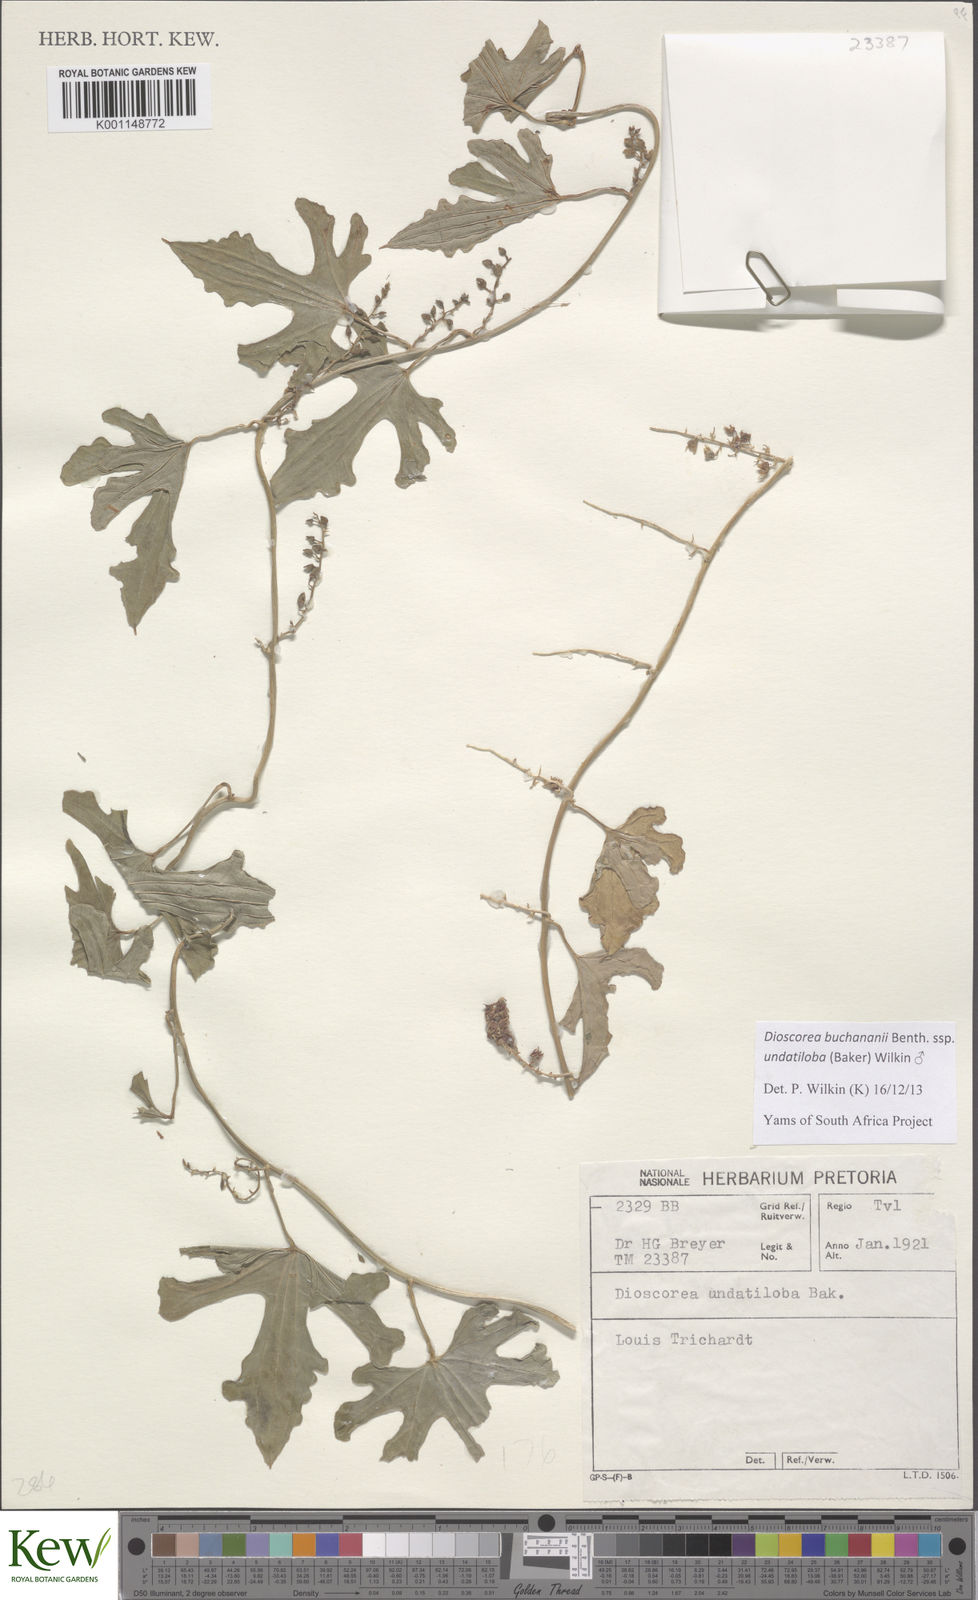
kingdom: Plantae
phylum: Tracheophyta
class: Liliopsida
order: Dioscoreales
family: Dioscoreaceae
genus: Dioscorea
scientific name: Dioscorea buchananii
